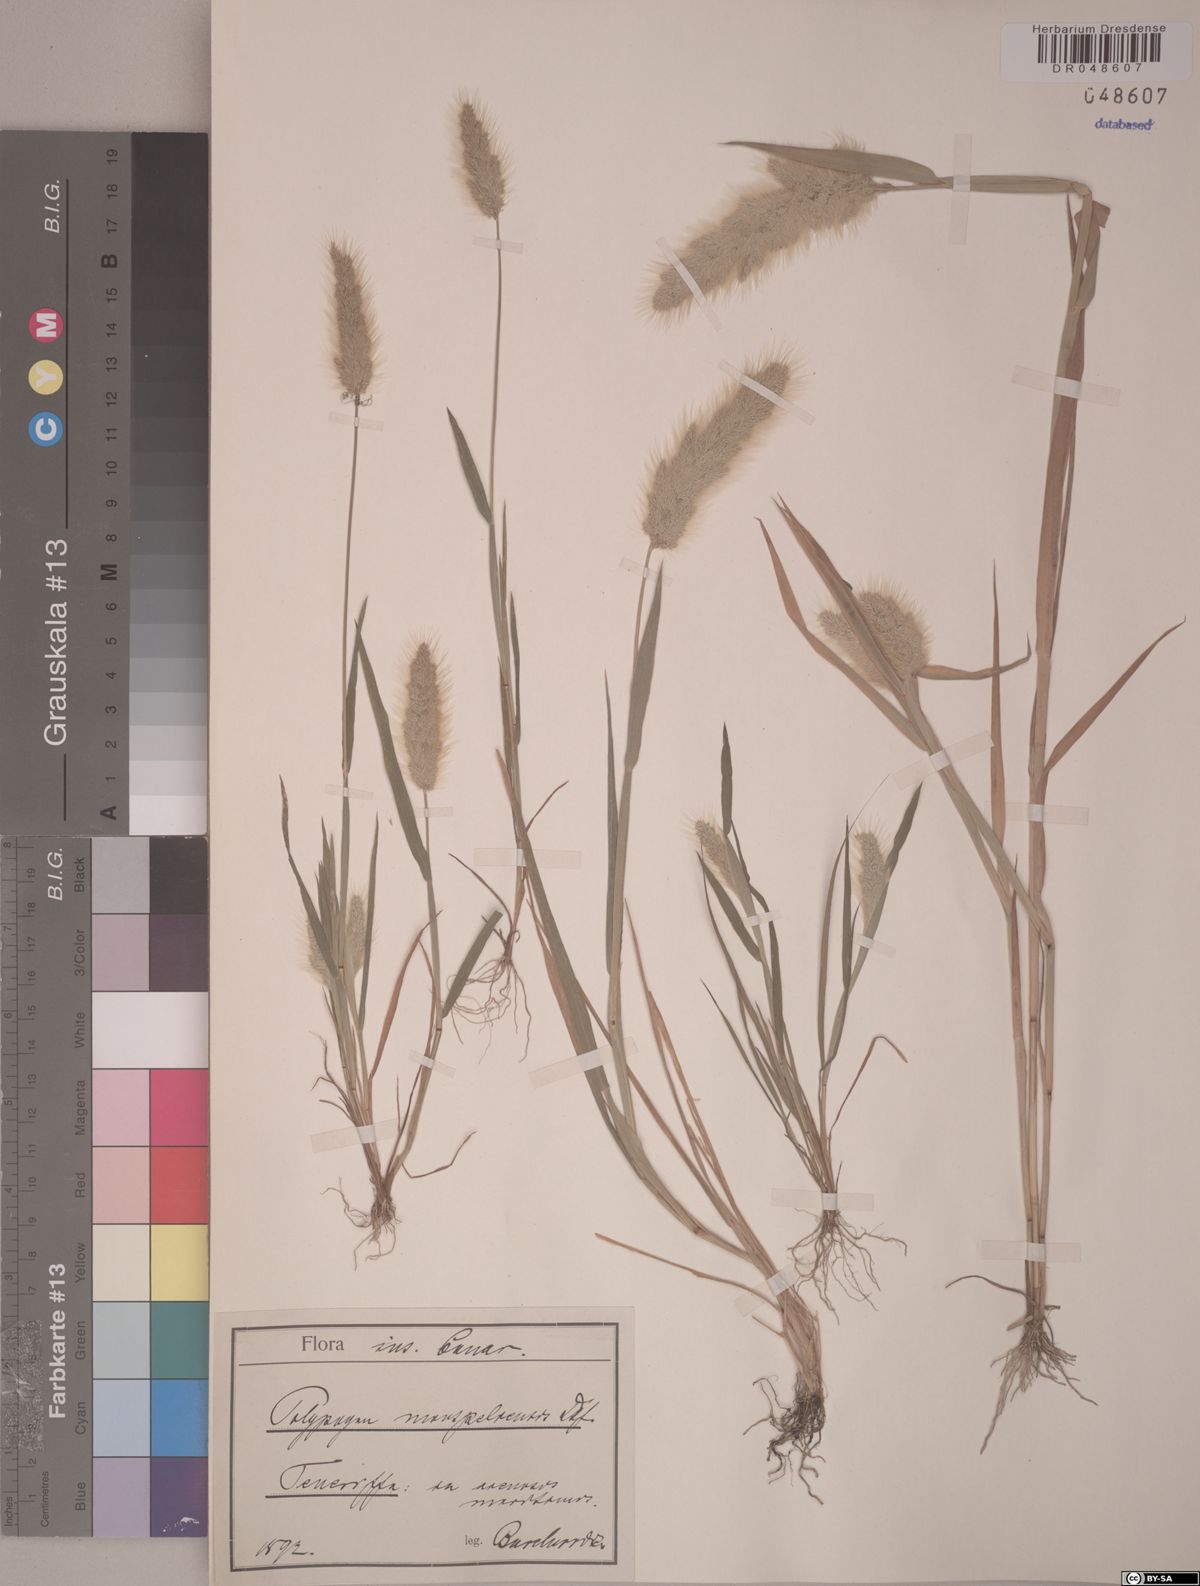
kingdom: Plantae
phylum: Tracheophyta
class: Liliopsida
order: Poales
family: Poaceae
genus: Polypogon
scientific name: Polypogon monspeliensis
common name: Annual rabbitsfoot grass
